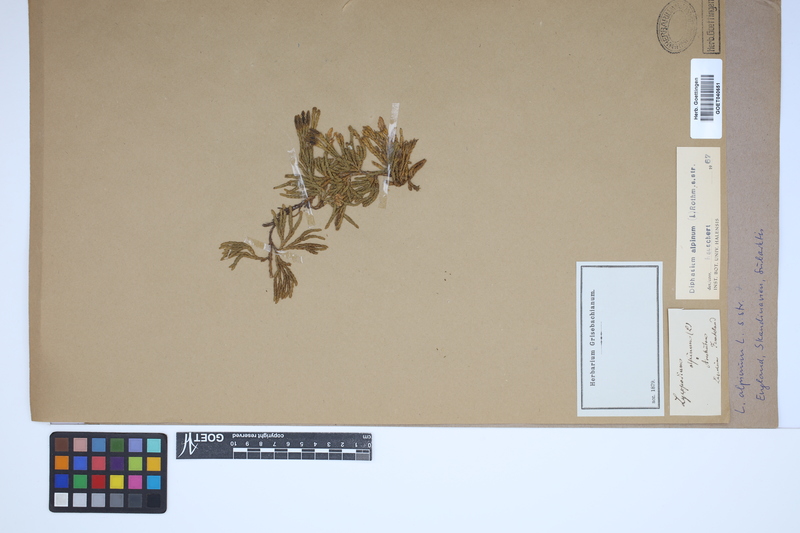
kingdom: Plantae
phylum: Tracheophyta
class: Lycopodiopsida
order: Lycopodiales
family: Lycopodiaceae
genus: Diphasiastrum
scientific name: Diphasiastrum alpinum
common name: Alpine clubmoss
